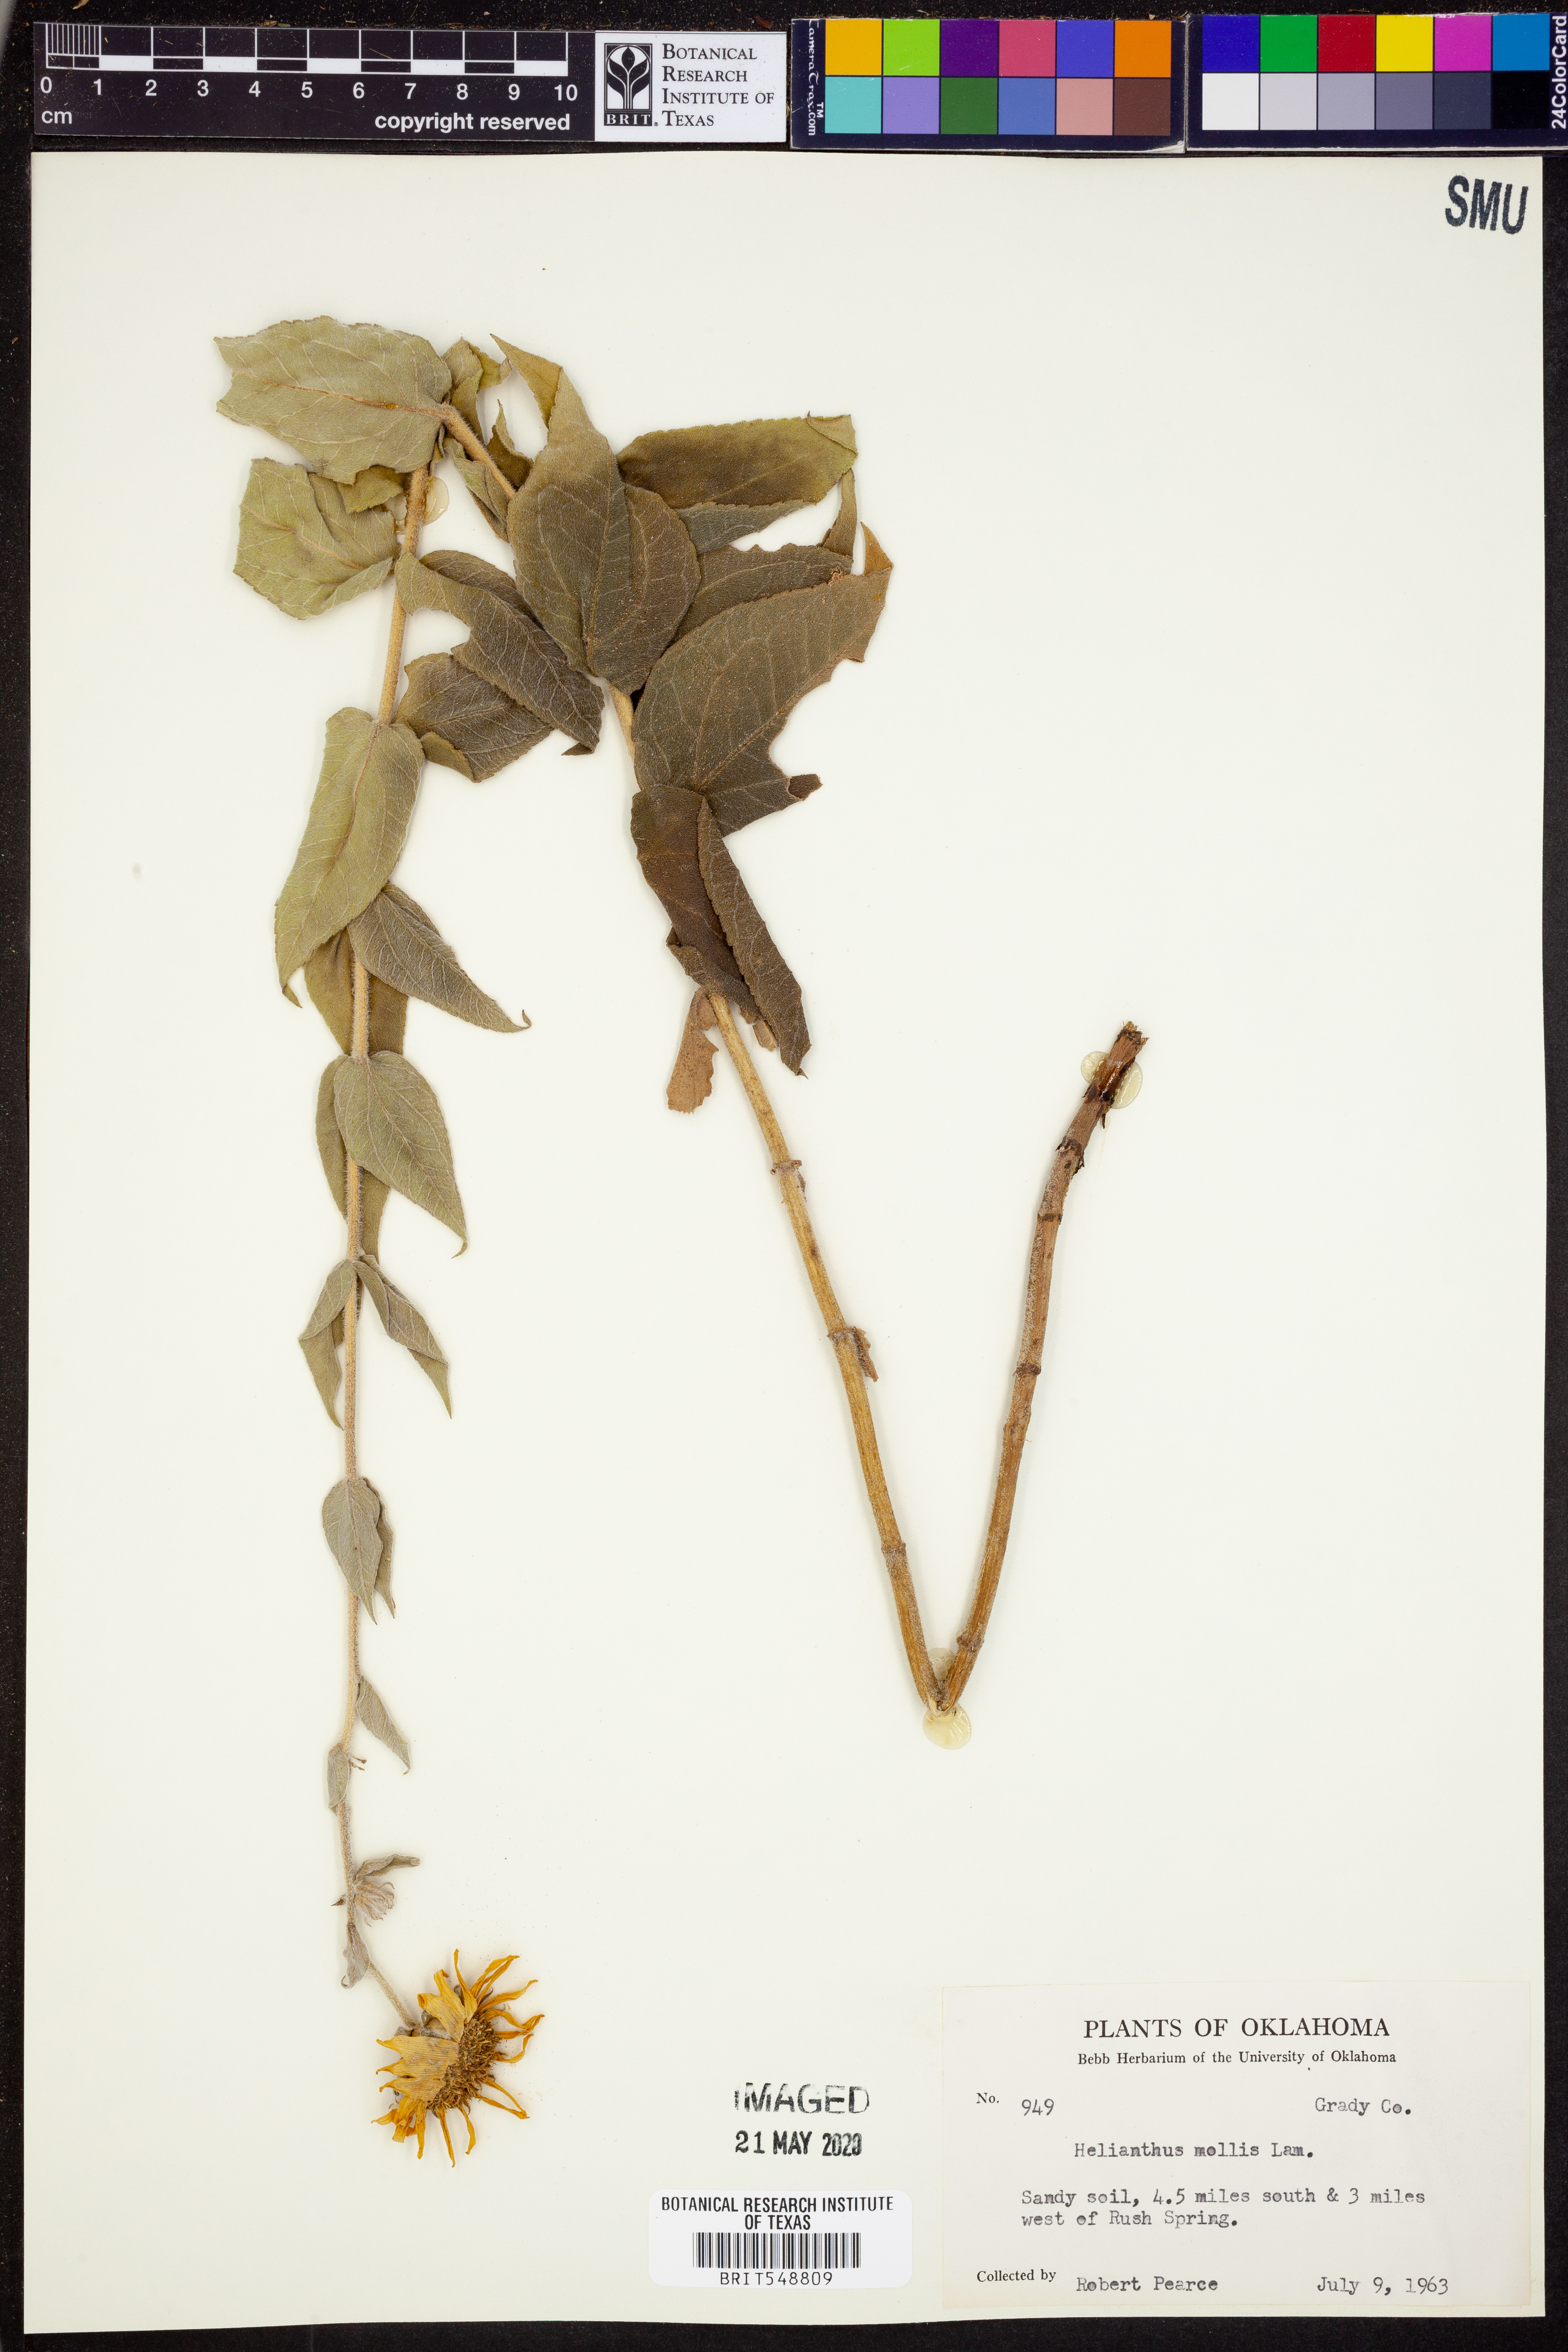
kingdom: Plantae
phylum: Tracheophyta
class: Magnoliopsida
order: Asterales
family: Asteraceae
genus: Helianthus
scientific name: Helianthus mollis
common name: Ashy sunflower
